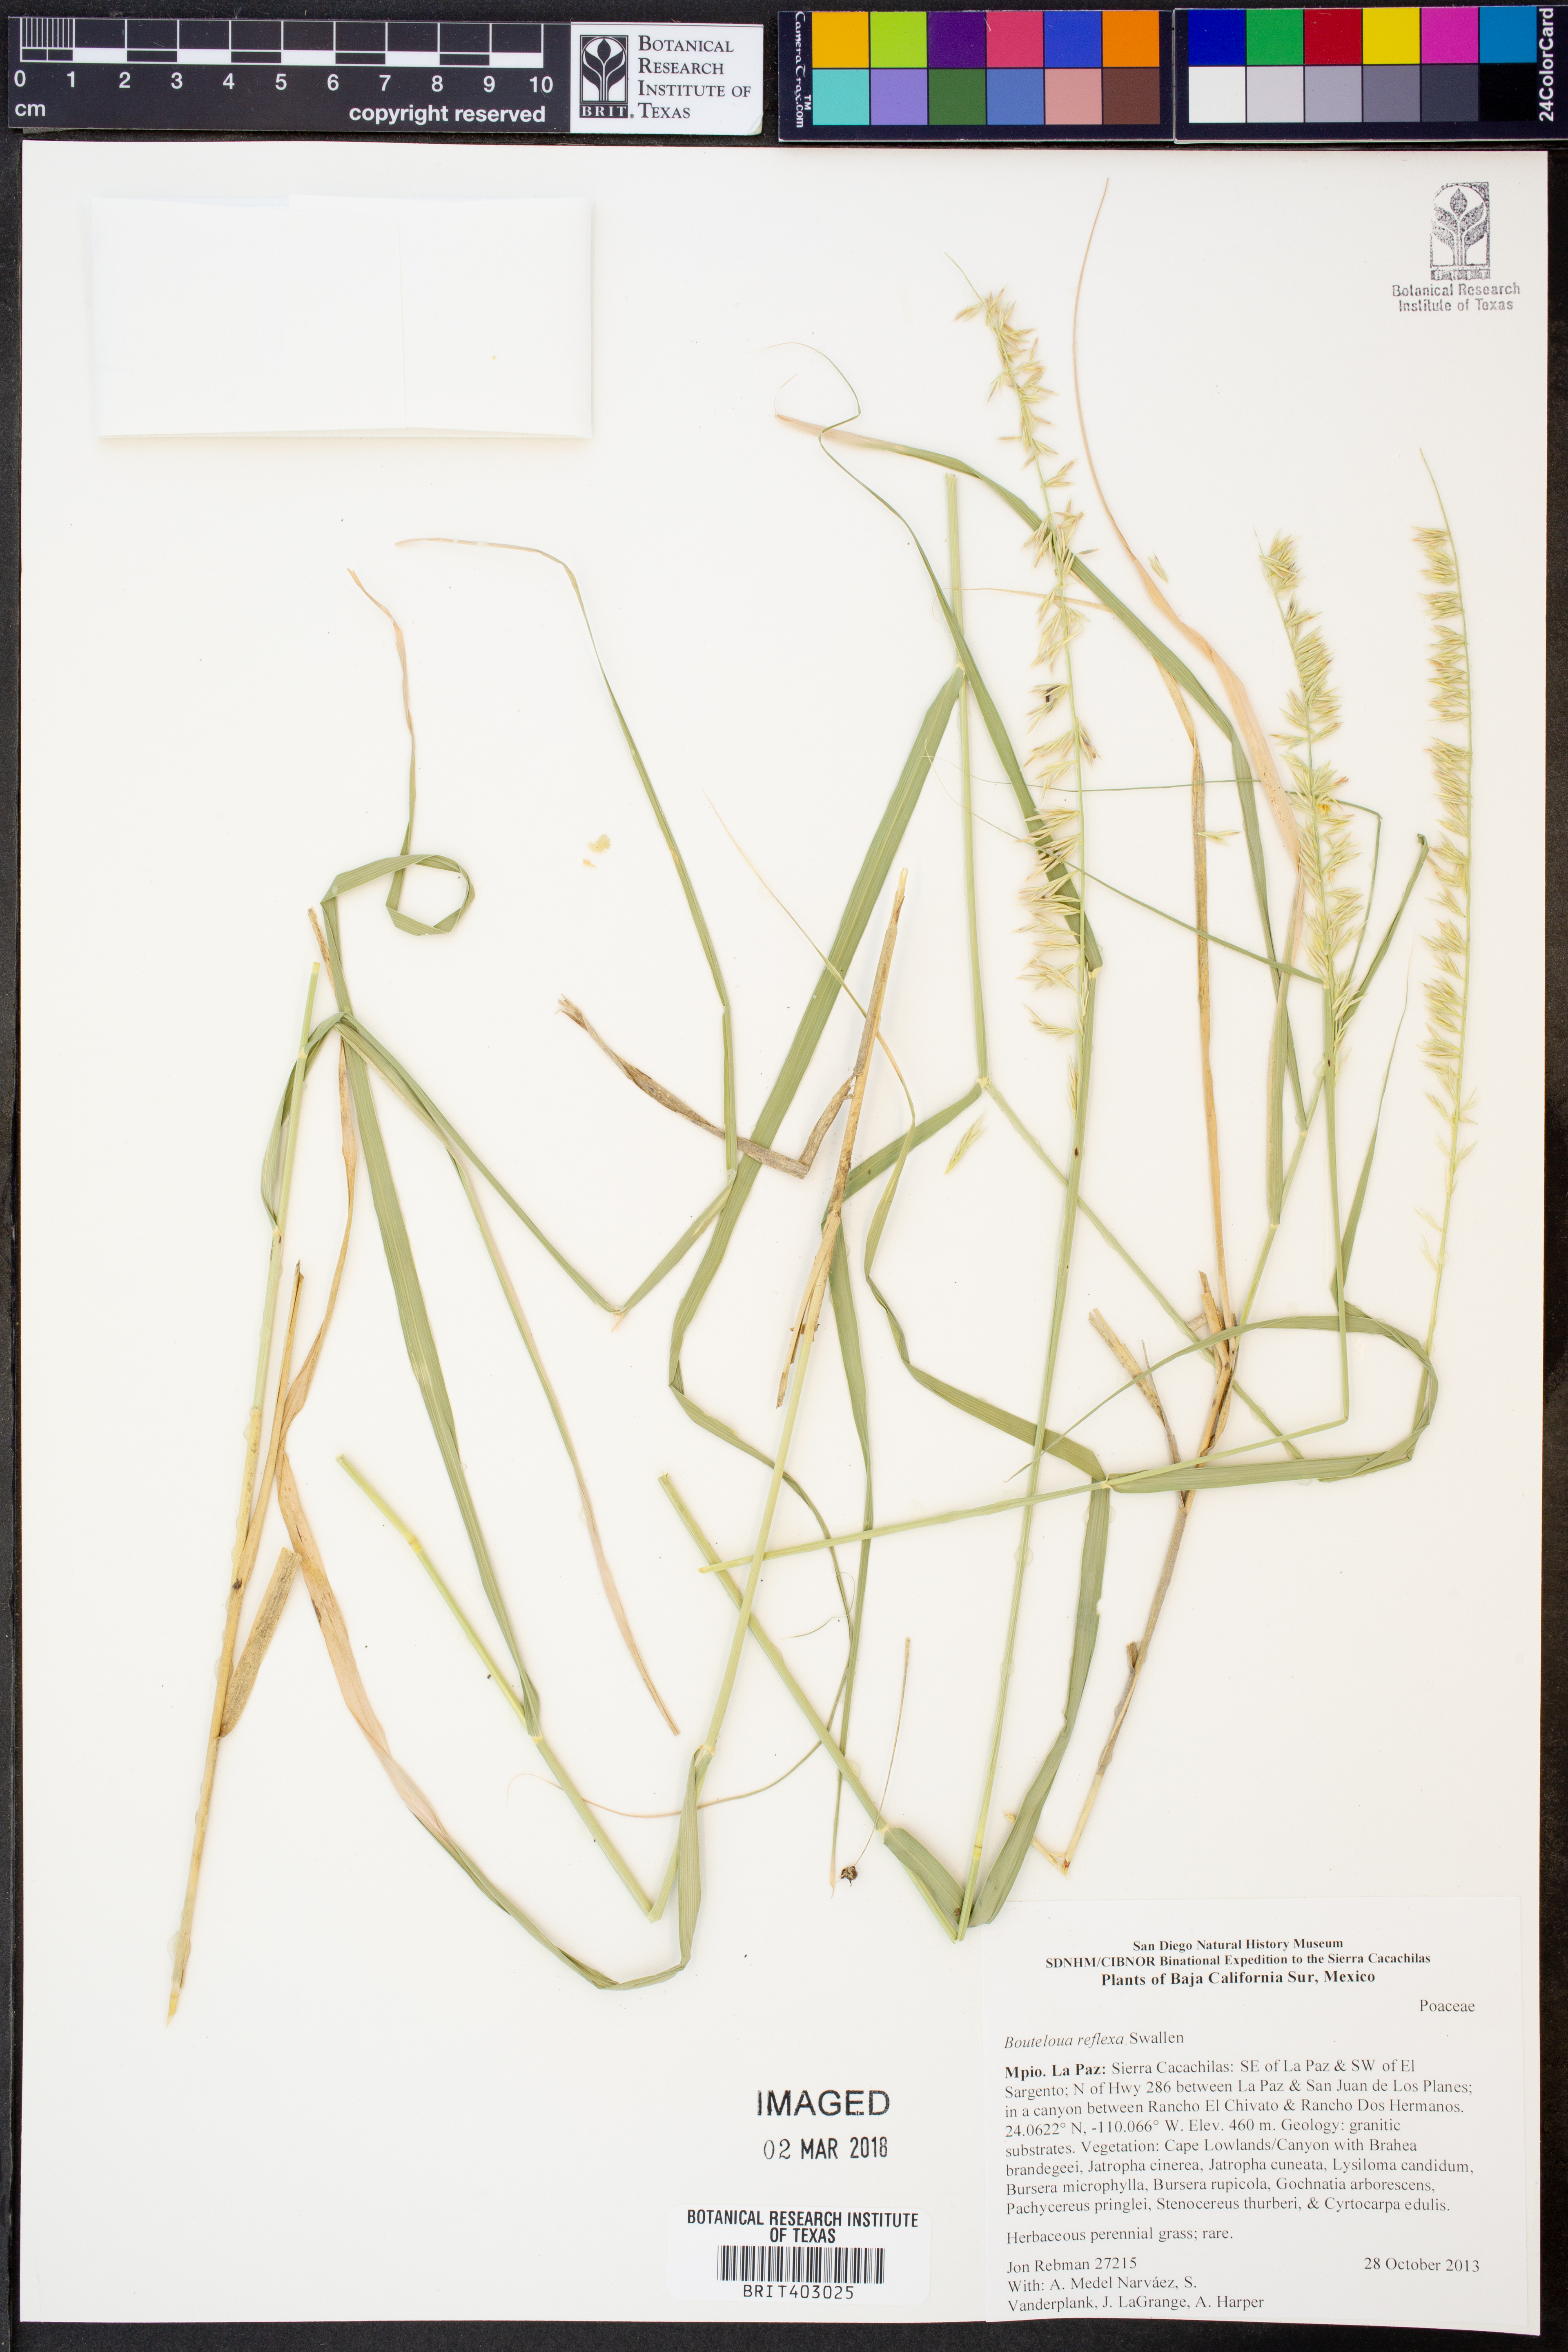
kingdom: Plantae
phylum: Tracheophyta
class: Liliopsida
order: Poales
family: Poaceae
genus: Bouteloua
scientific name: Bouteloua reflexa
